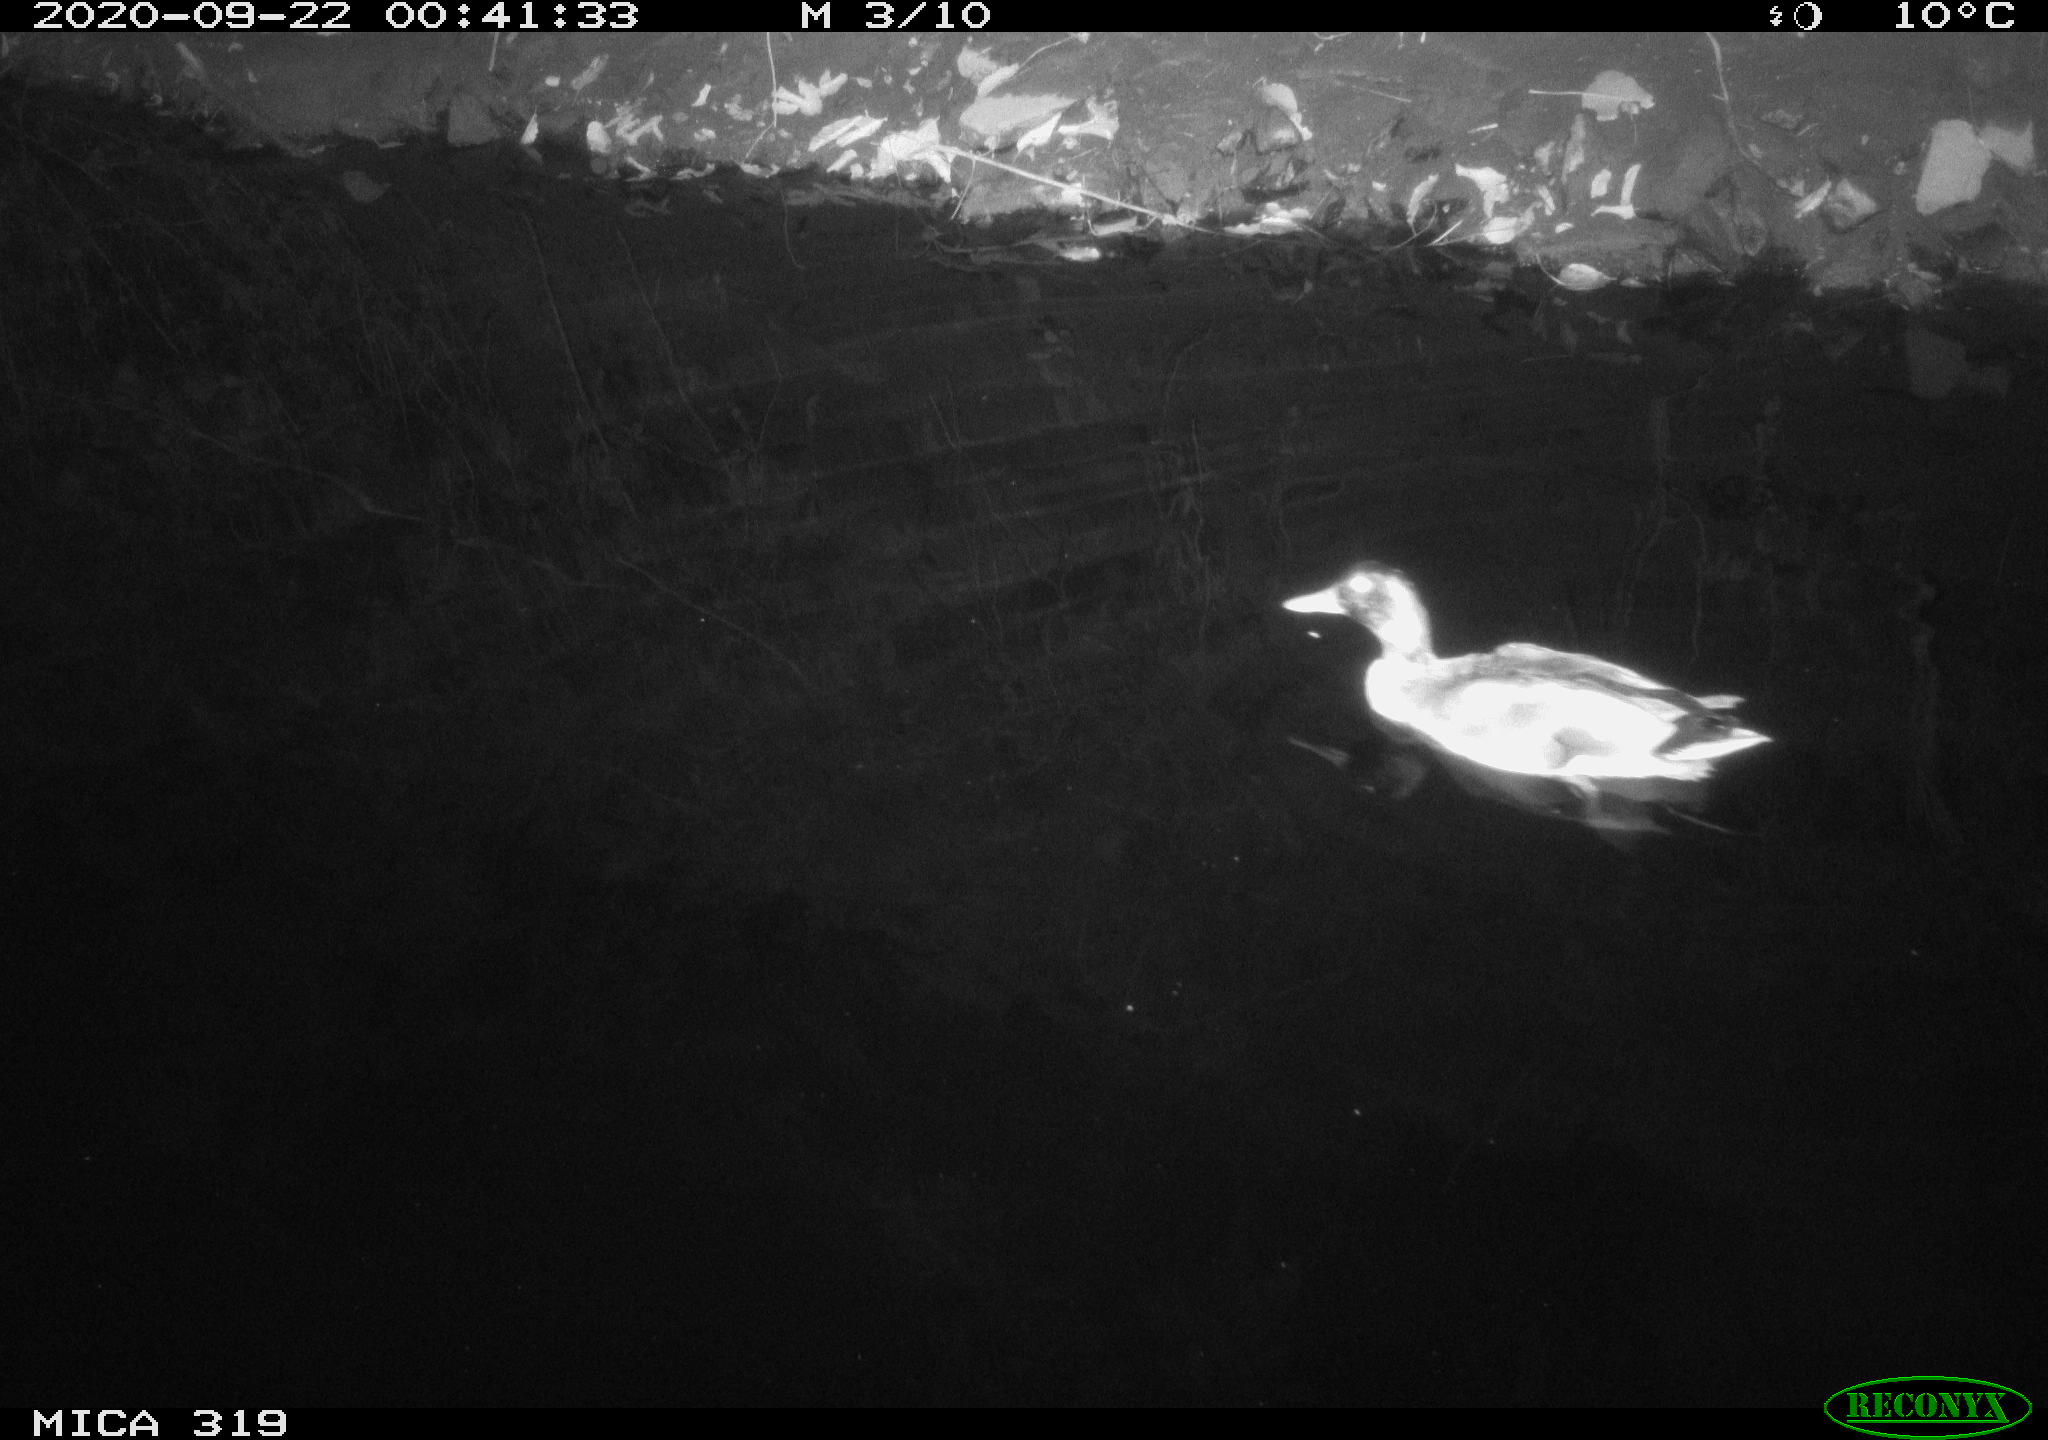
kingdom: Animalia
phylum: Chordata
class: Aves
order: Anseriformes
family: Anatidae
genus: Anas
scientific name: Anas platyrhynchos
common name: Mallard
